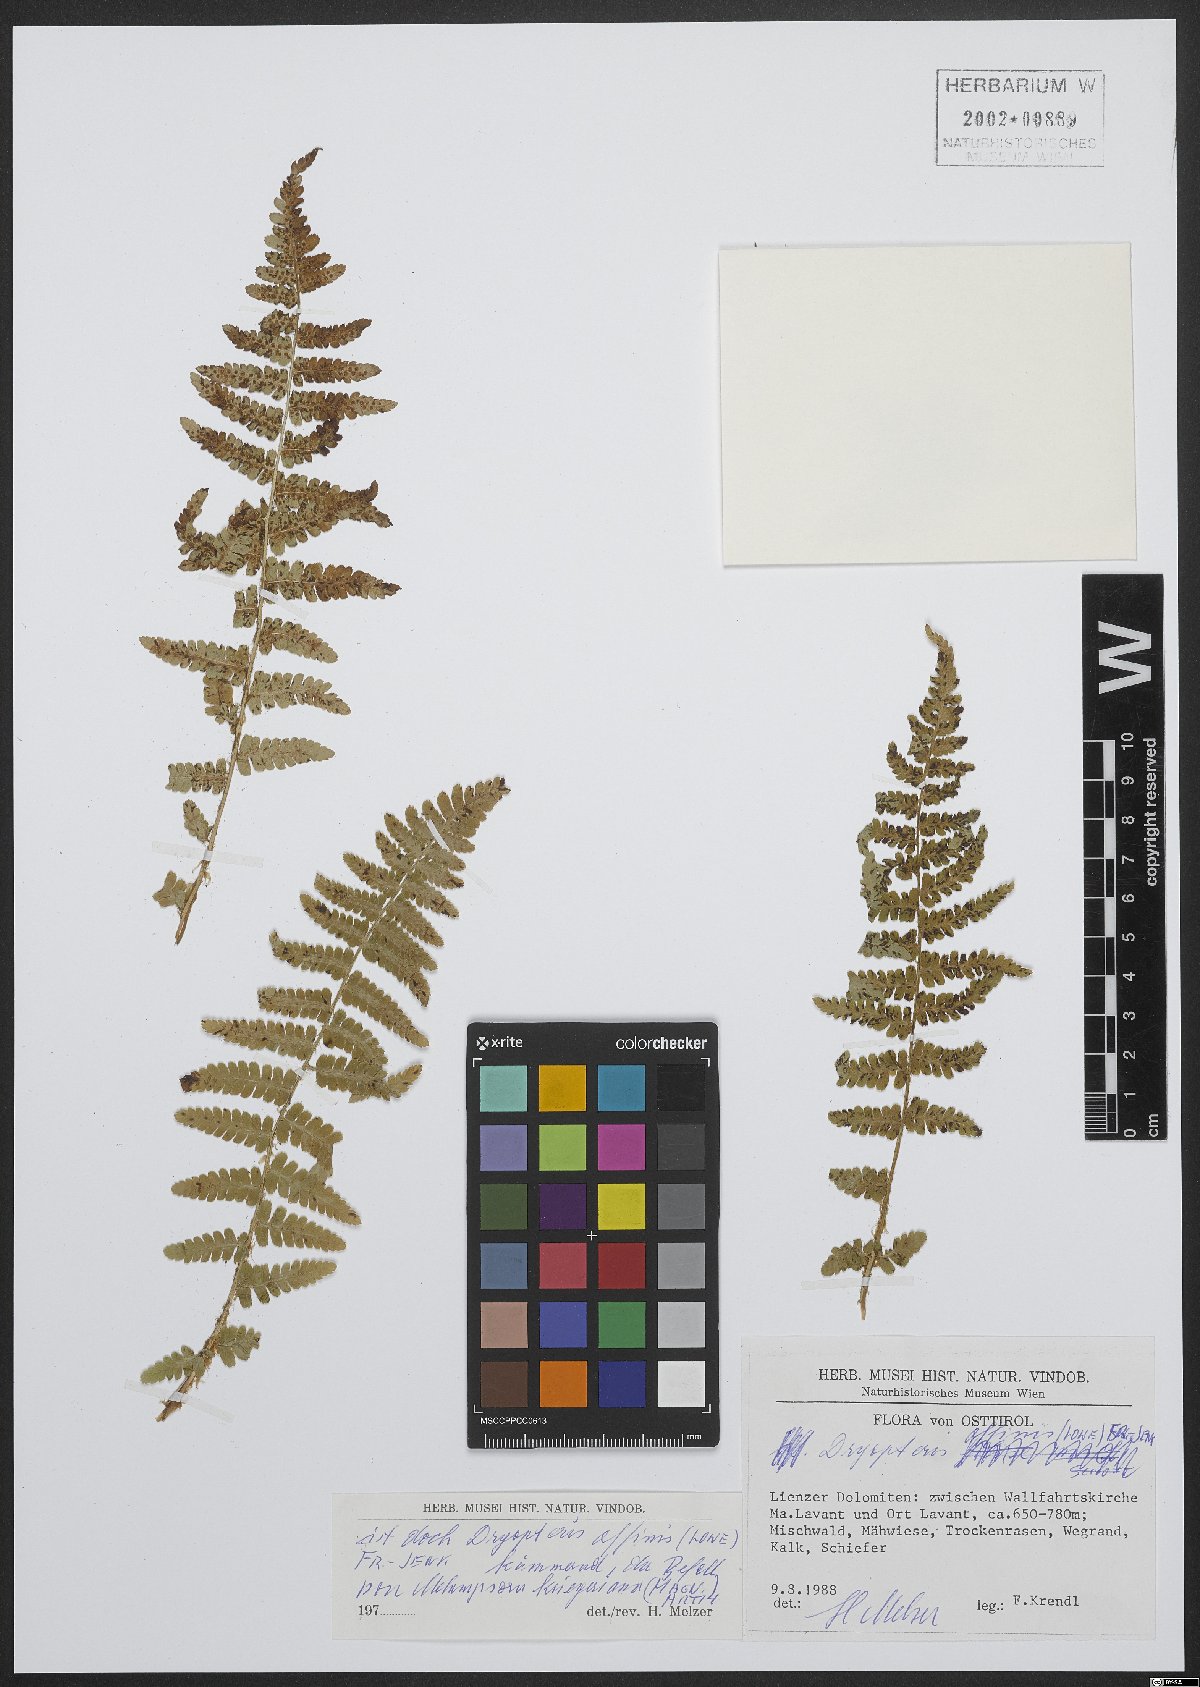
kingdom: Plantae
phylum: Tracheophyta
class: Polypodiopsida
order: Polypodiales
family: Dryopteridaceae
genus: Dryopteris
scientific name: Dryopteris affinis
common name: Scaly male fern
